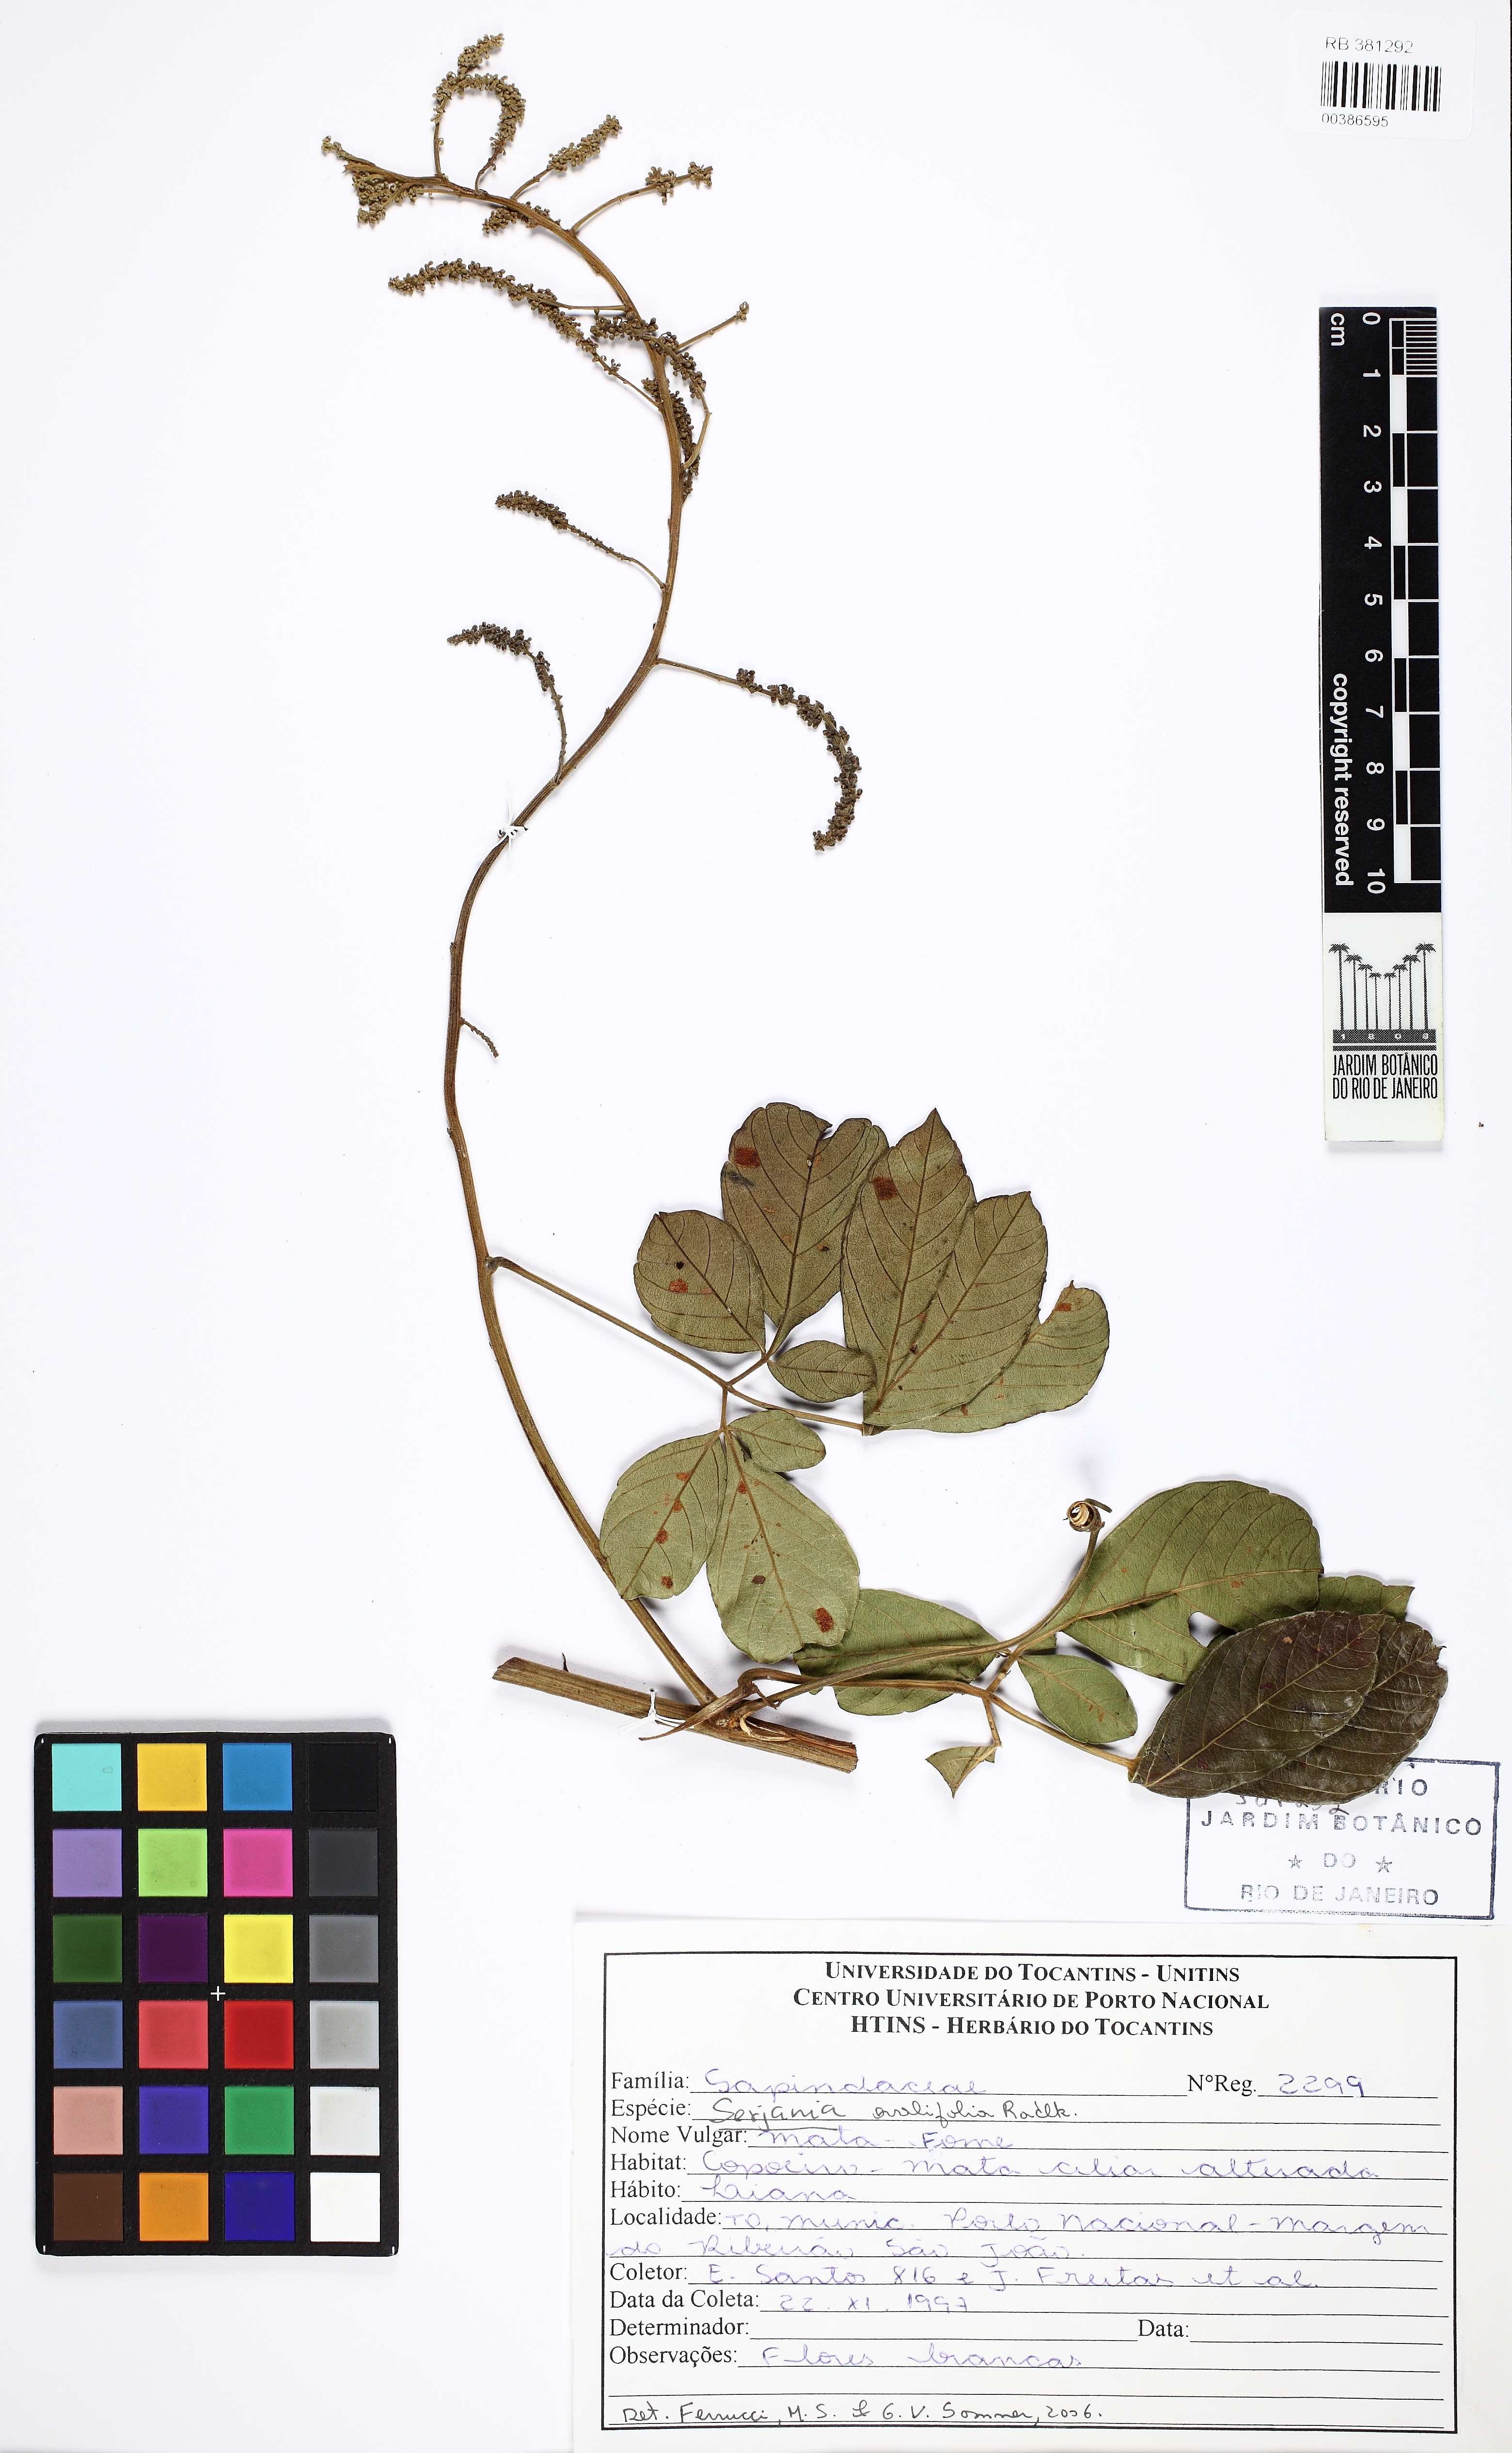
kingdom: Plantae
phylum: Tracheophyta
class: Magnoliopsida
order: Sapindales
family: Sapindaceae
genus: Serjania
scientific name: Serjania ovalifolia
